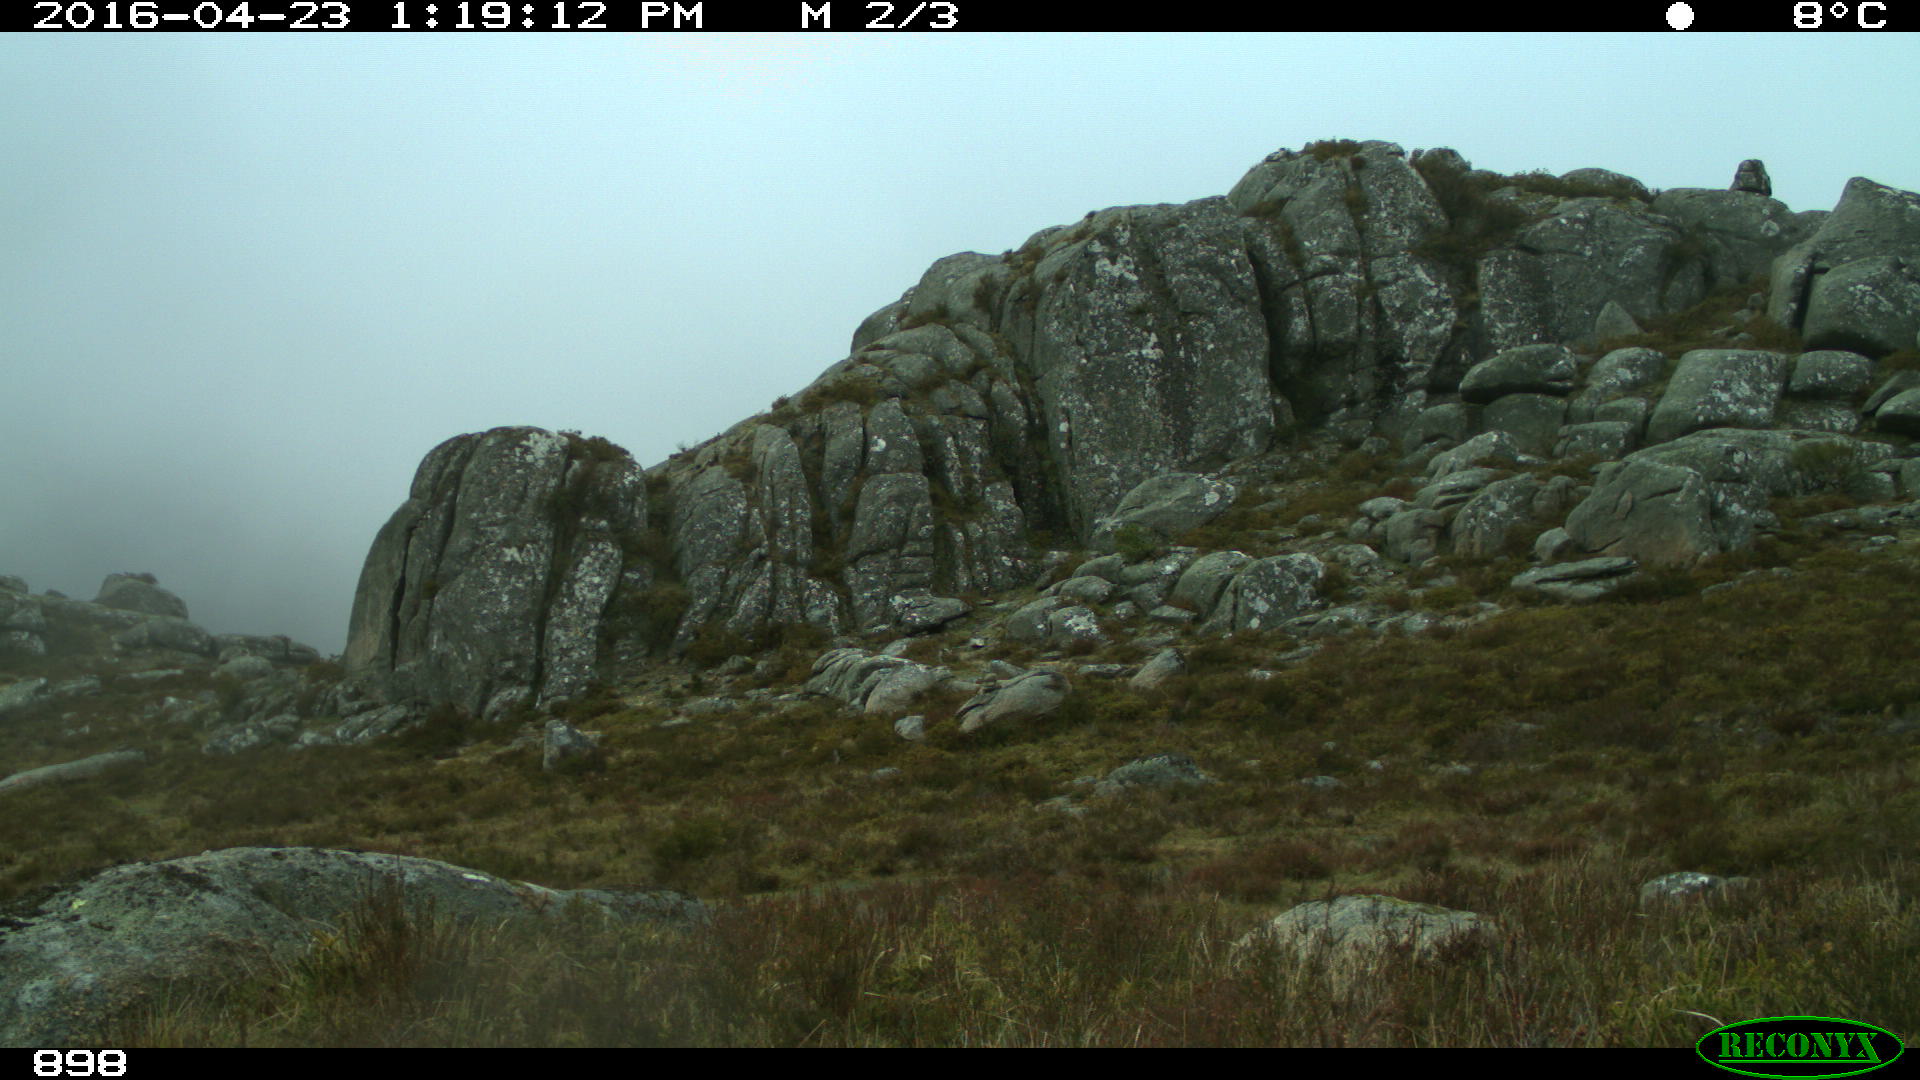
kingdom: Animalia
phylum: Chordata
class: Mammalia
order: Perissodactyla
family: Equidae
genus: Equus
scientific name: Equus caballus
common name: Horse
